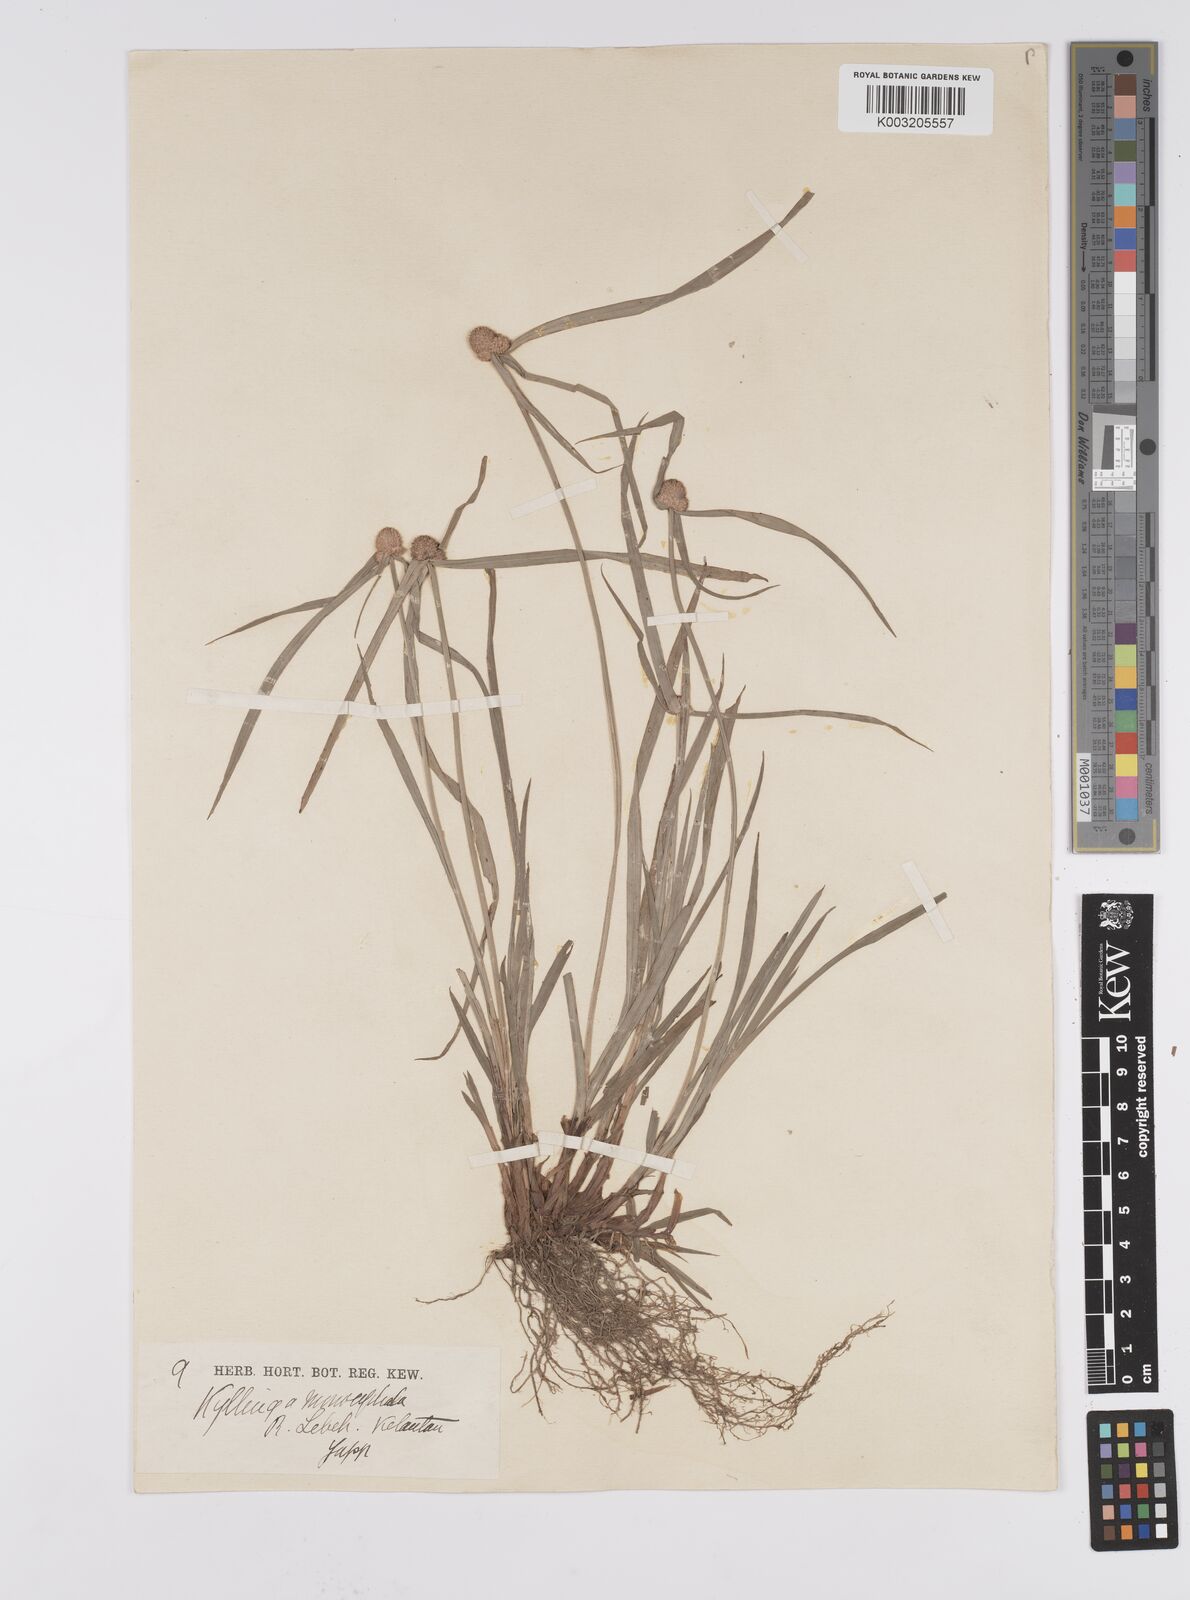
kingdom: Plantae
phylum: Tracheophyta
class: Liliopsida
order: Poales
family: Cyperaceae
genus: Cyperus
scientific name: Cyperus nemoralis
